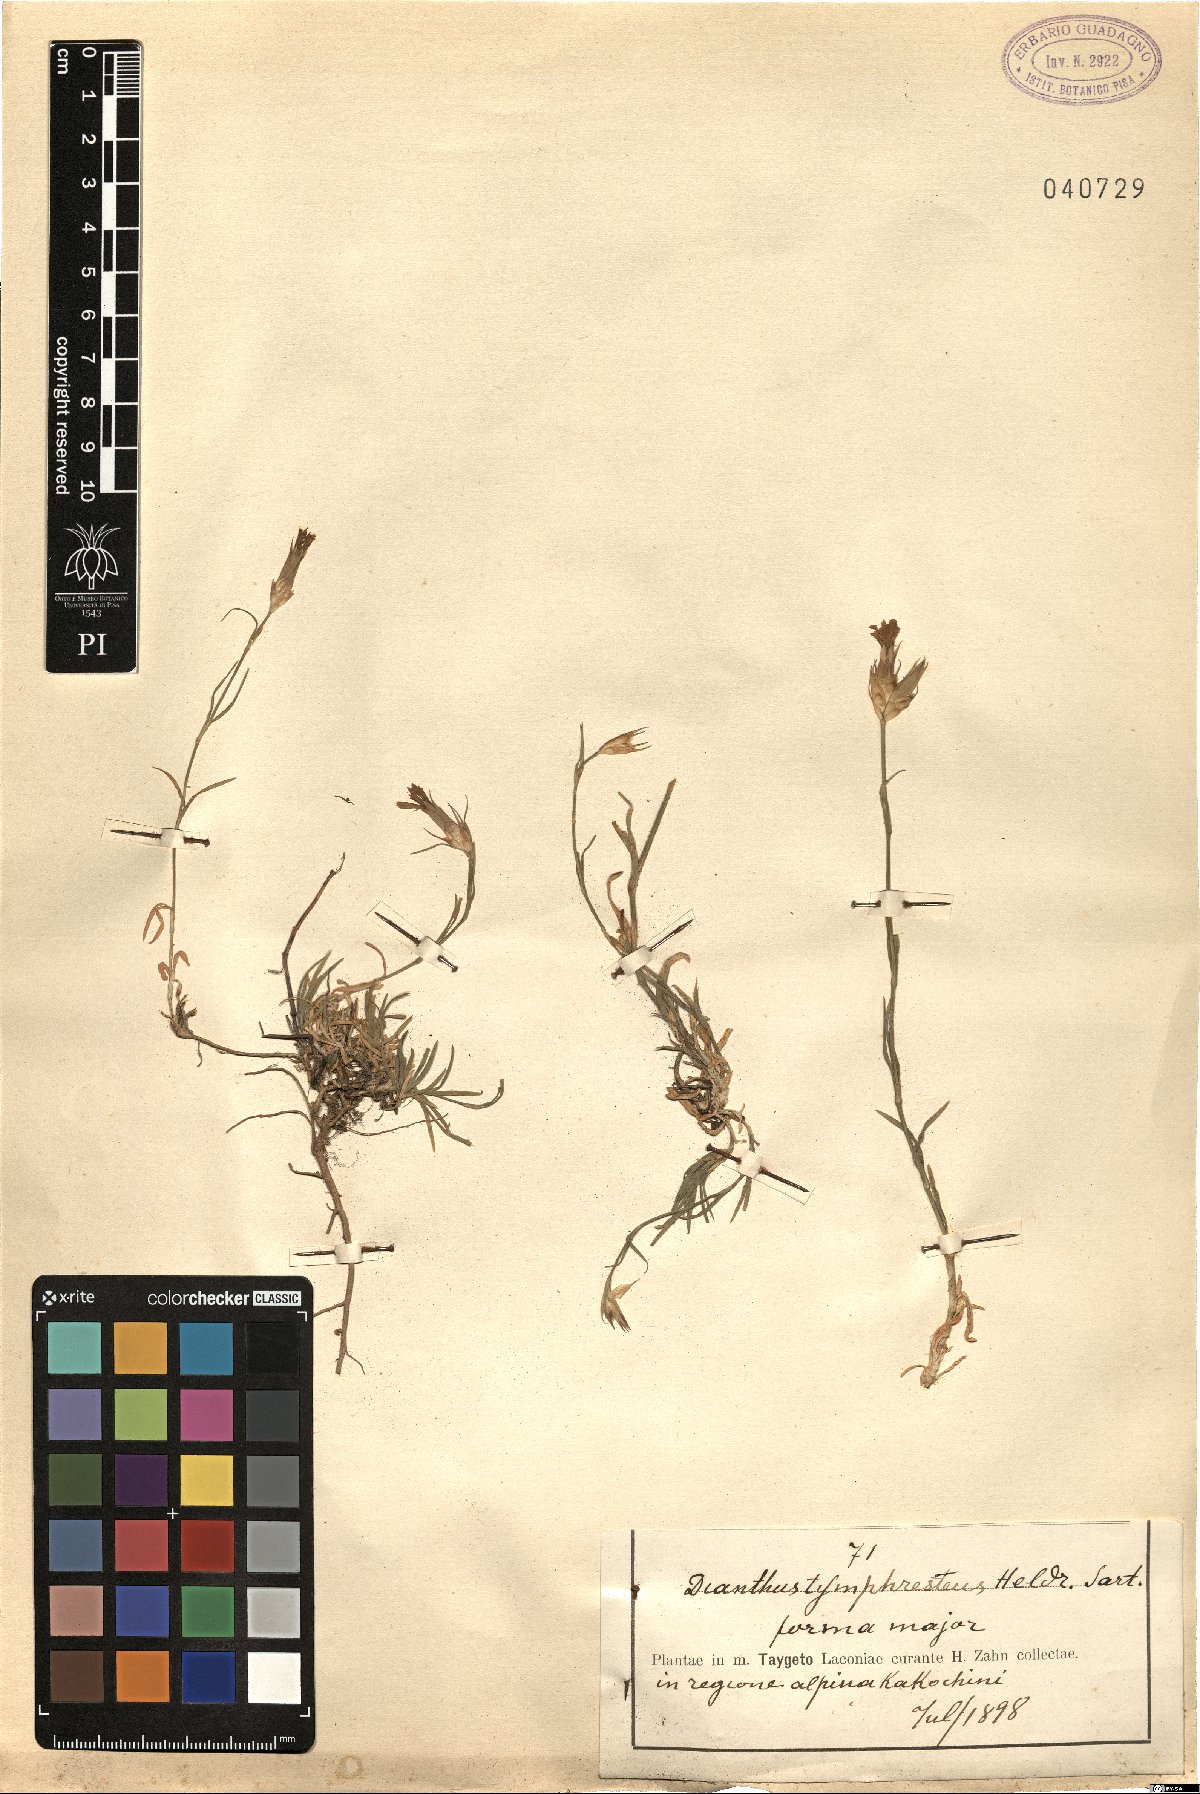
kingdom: Plantae
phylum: Tracheophyta
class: Magnoliopsida
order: Caryophyllales
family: Caryophyllaceae
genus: Dianthus
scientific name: Dianthus tymphresteus
